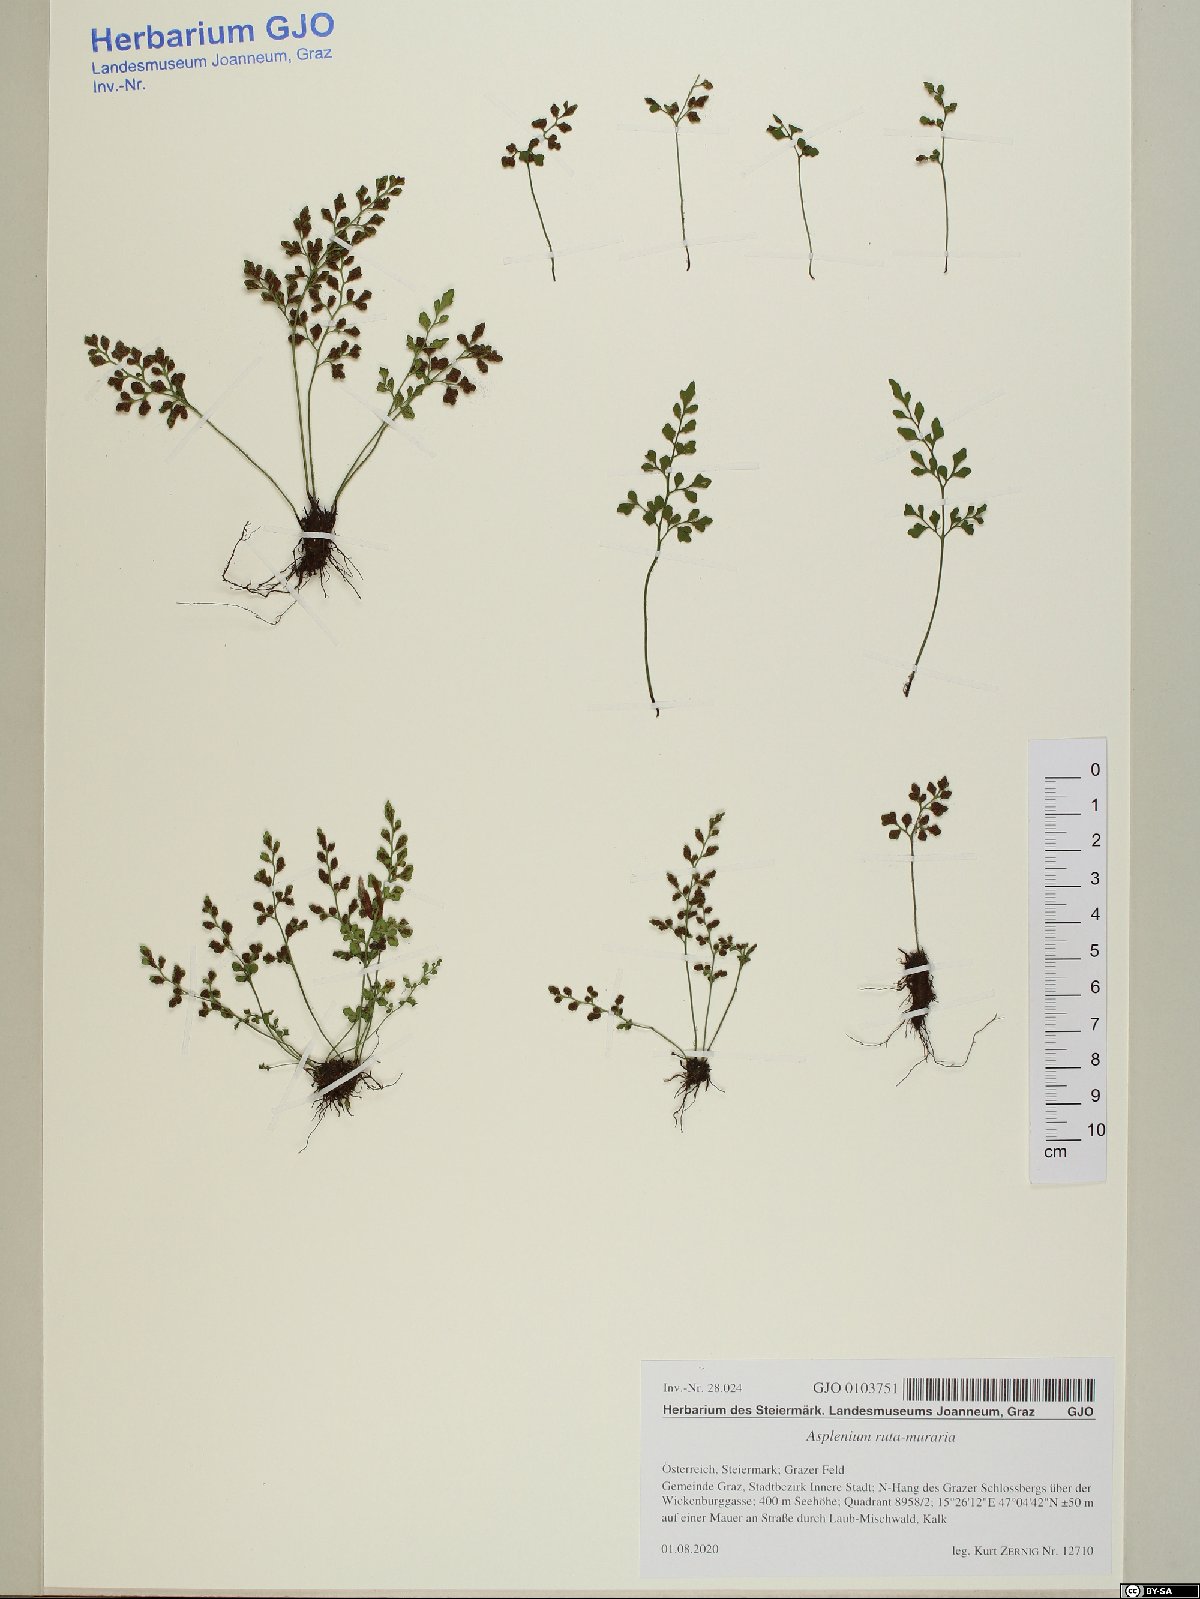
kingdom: Plantae
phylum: Tracheophyta
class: Polypodiopsida
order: Polypodiales
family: Aspleniaceae
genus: Asplenium
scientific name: Asplenium ruta-muraria
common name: Wall-rue
